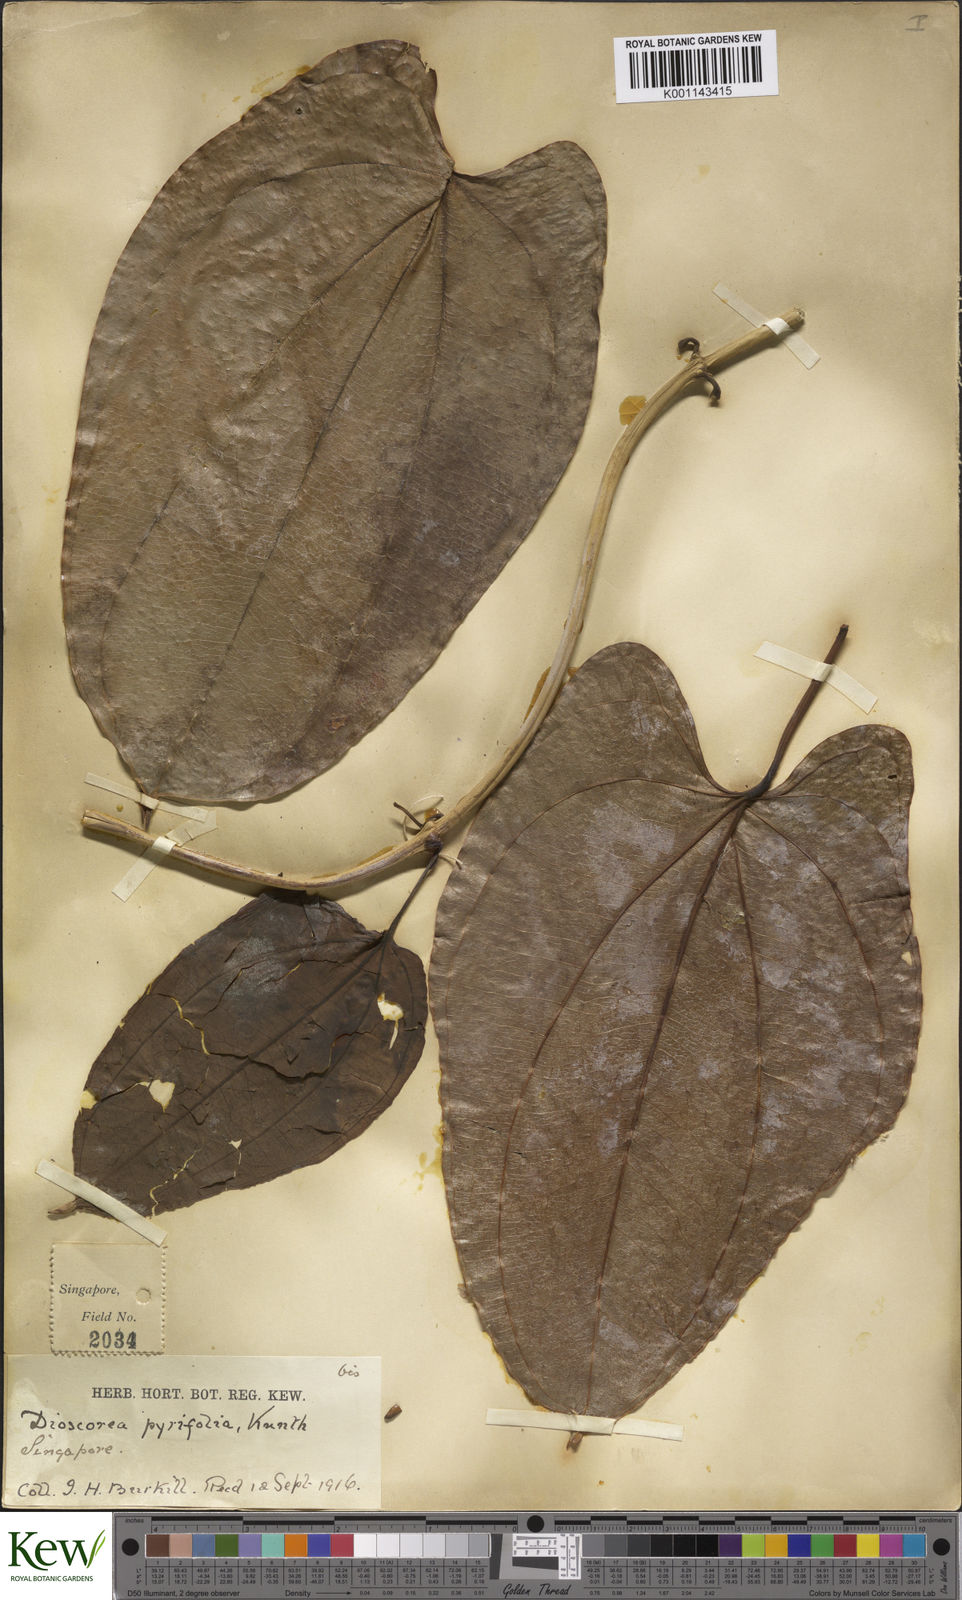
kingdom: Plantae
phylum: Tracheophyta
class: Liliopsida
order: Dioscoreales
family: Dioscoreaceae
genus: Dioscorea
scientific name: Dioscorea pyrifolia
